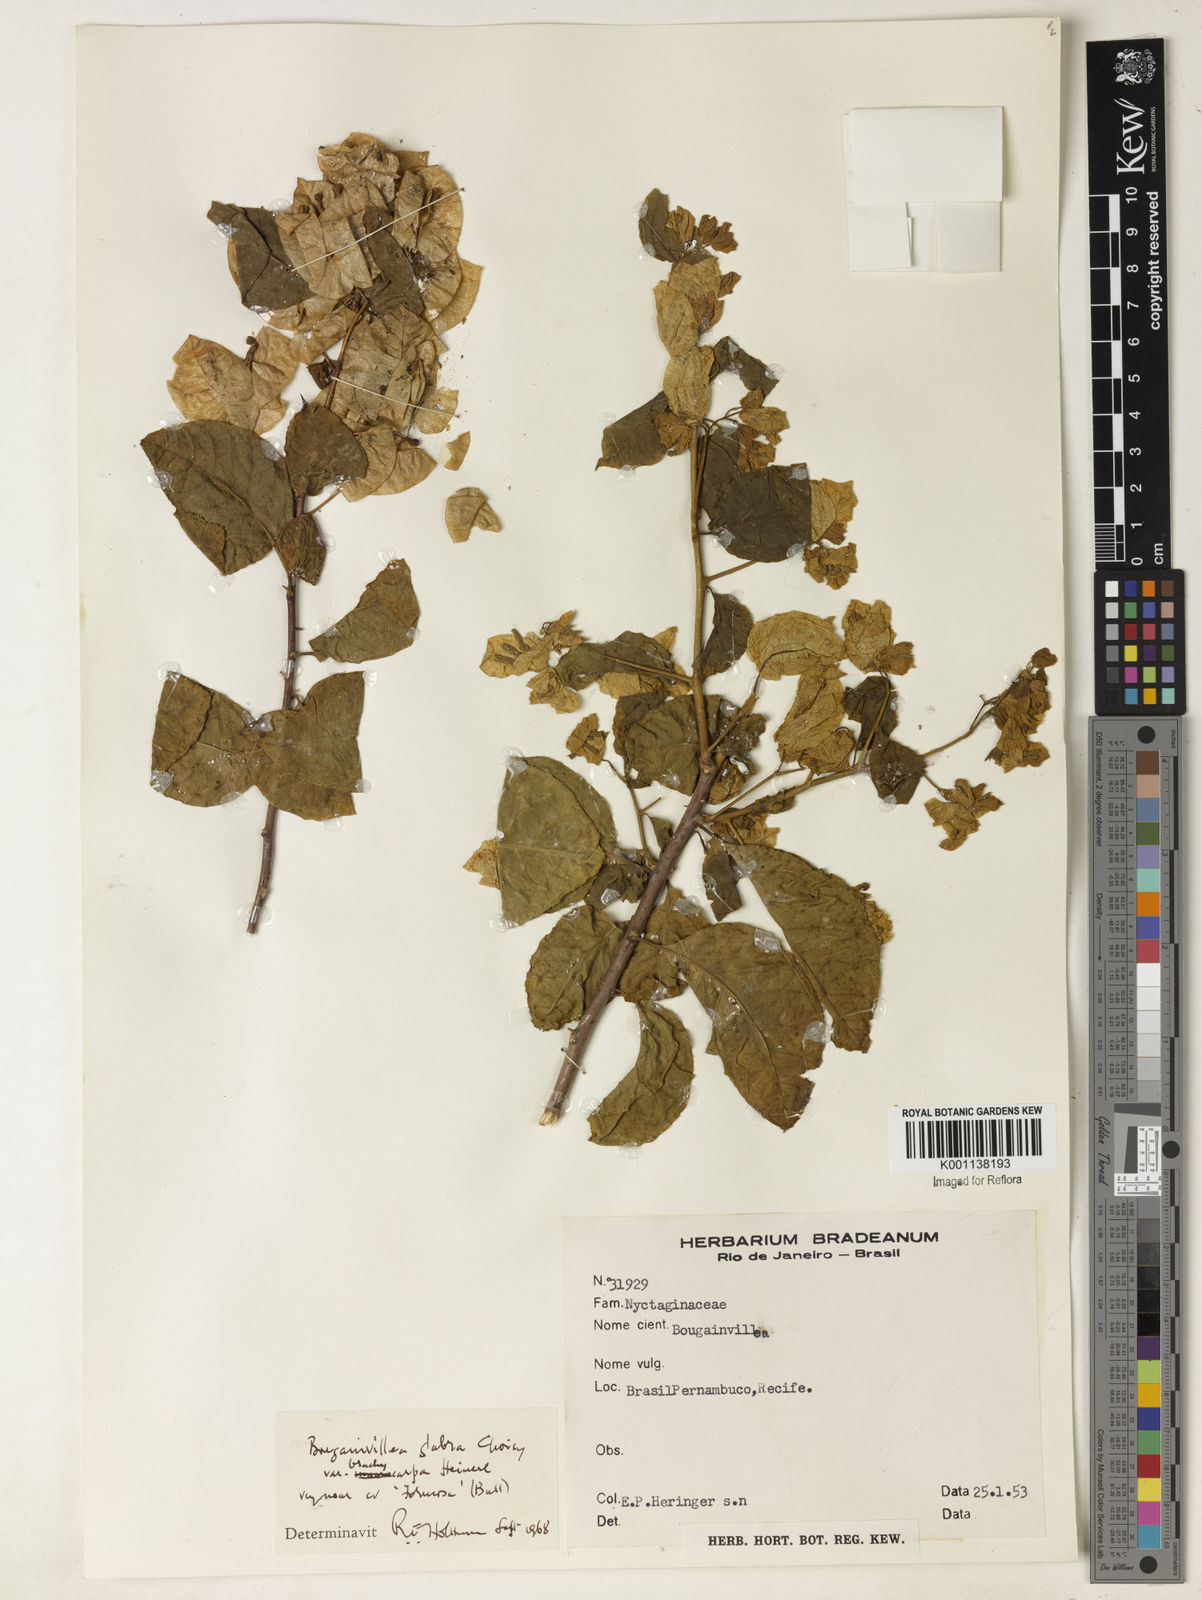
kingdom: Plantae
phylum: Tracheophyta
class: Magnoliopsida
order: Caryophyllales
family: Nyctaginaceae
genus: Bougainvillea
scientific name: Bougainvillea glabra
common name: Paperflower
